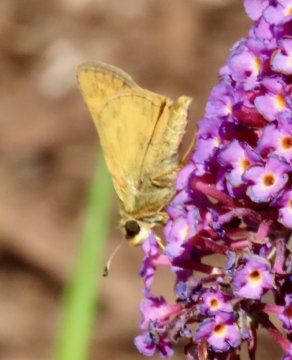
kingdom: Animalia
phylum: Arthropoda
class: Insecta
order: Lepidoptera
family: Hesperiidae
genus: Atalopedes
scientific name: Atalopedes campestris
